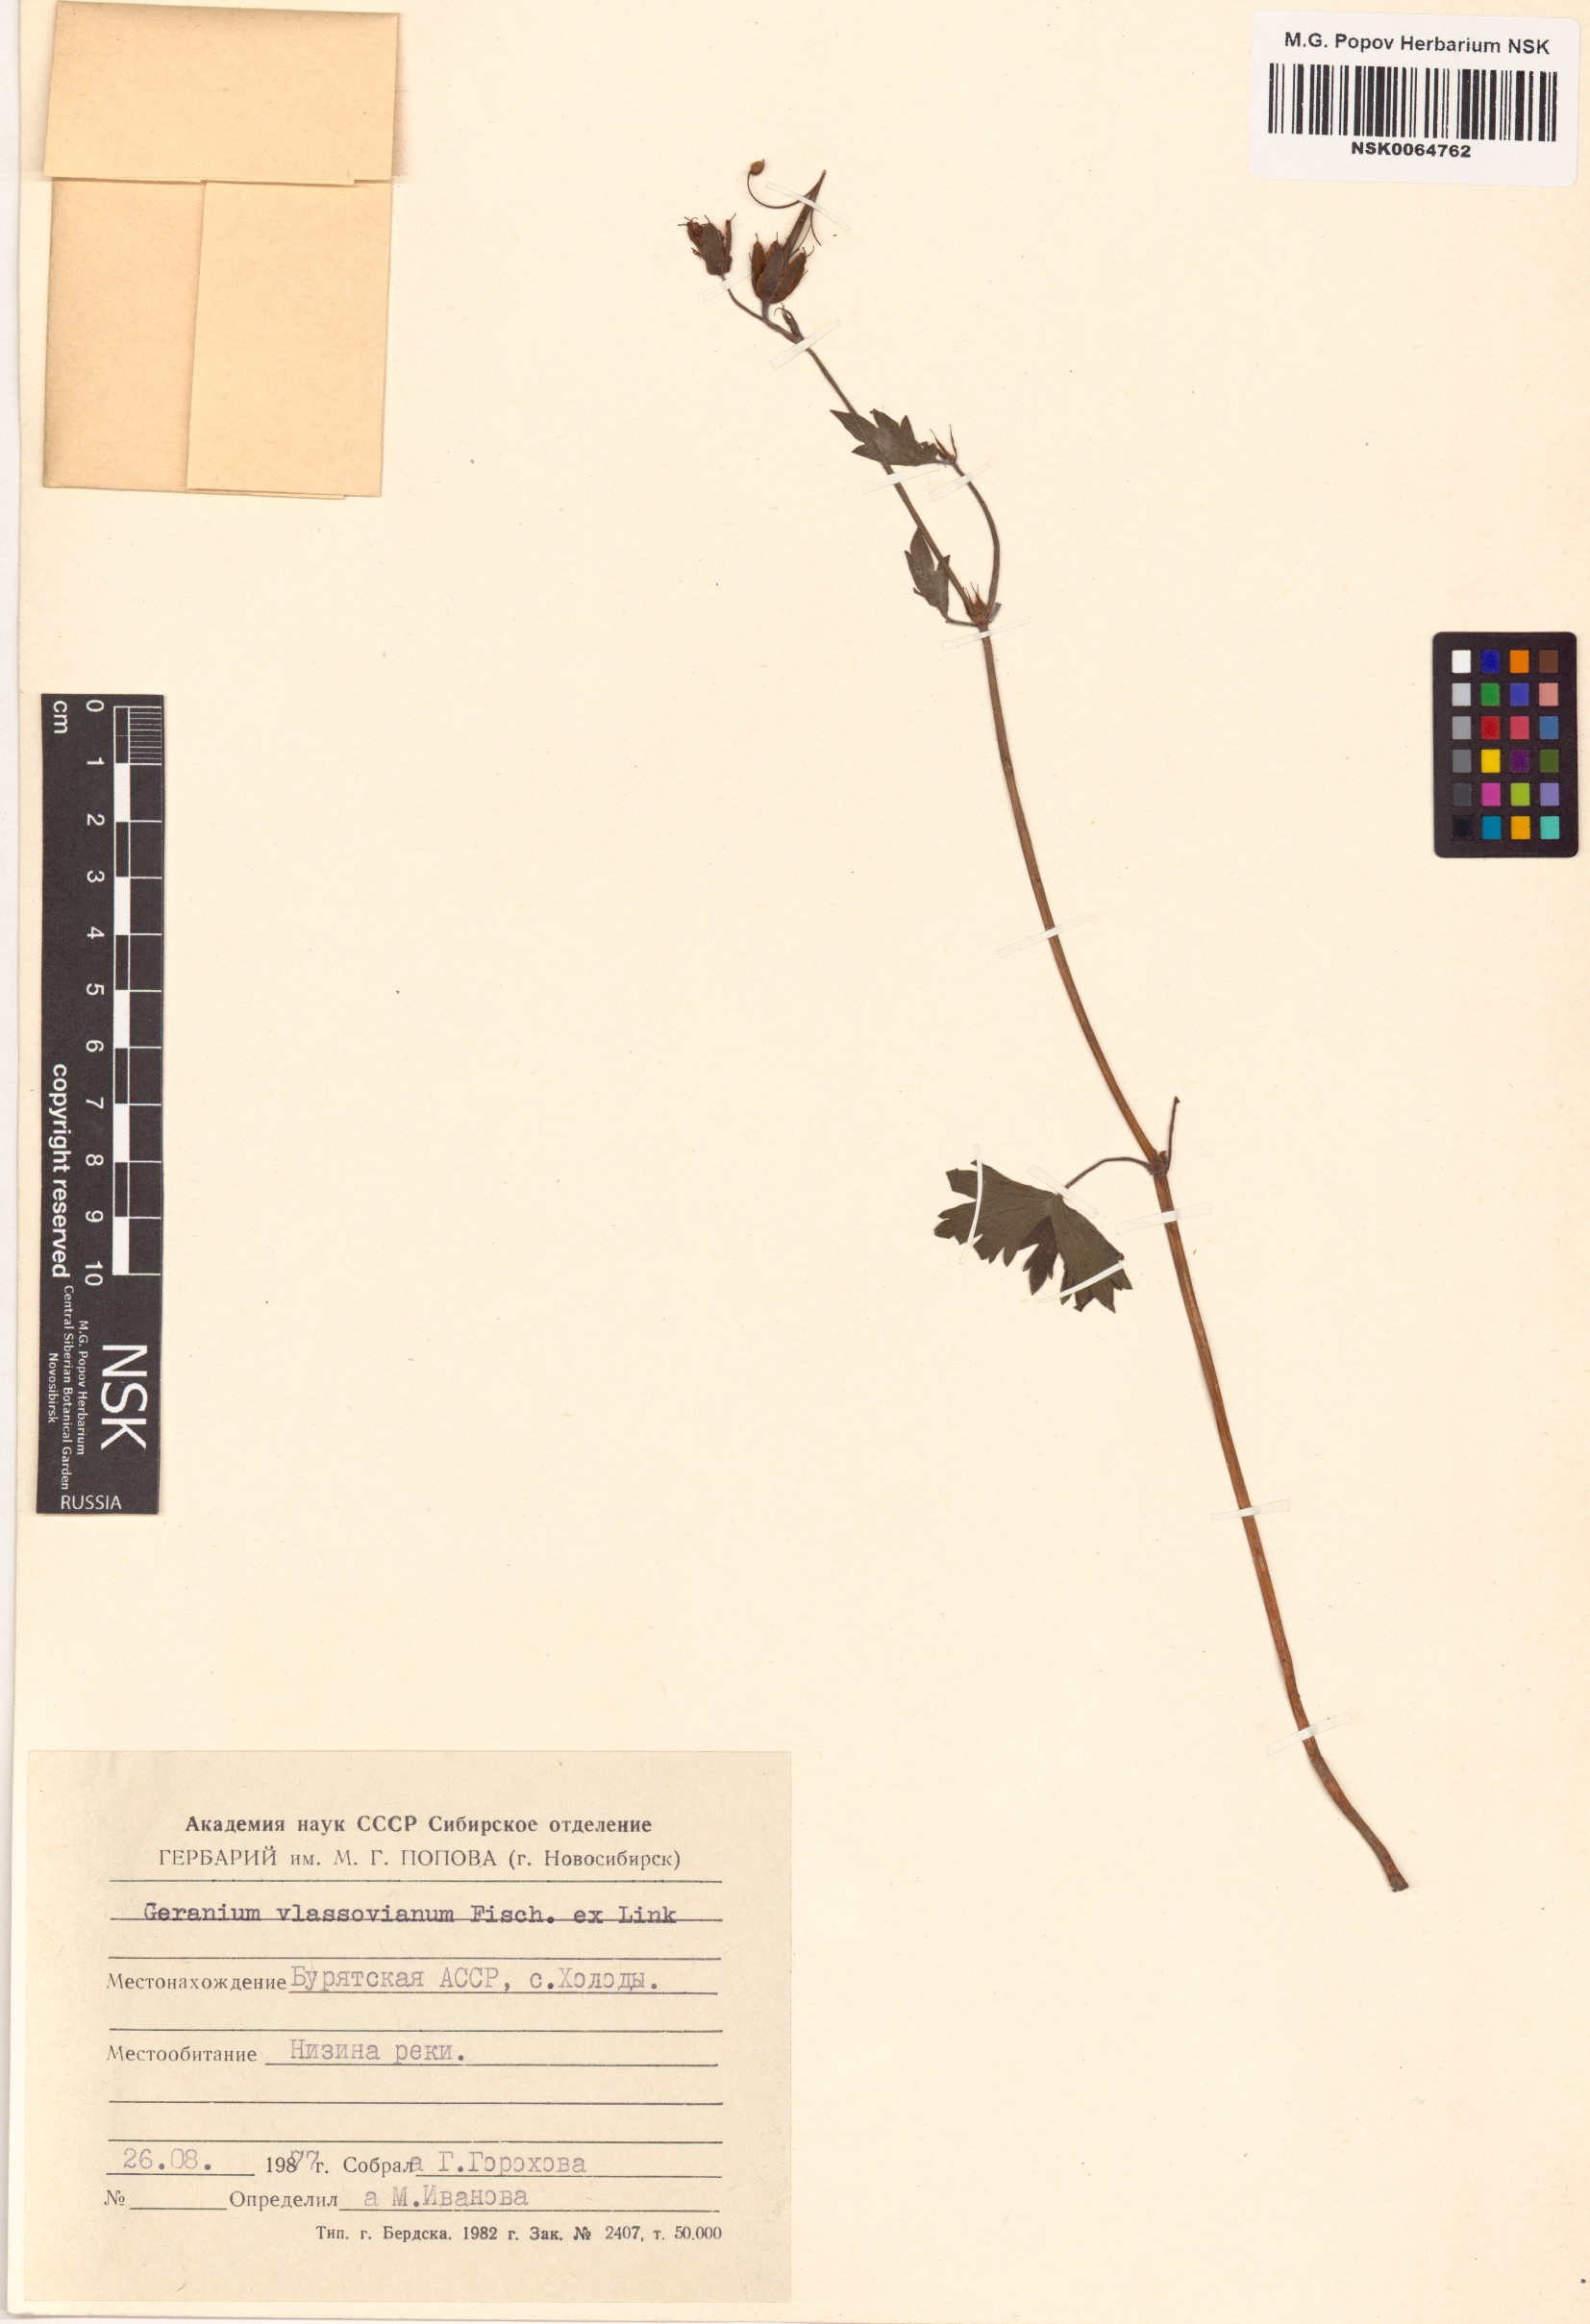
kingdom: Plantae
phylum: Tracheophyta
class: Magnoliopsida
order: Geraniales
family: Geraniaceae
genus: Geranium
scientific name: Geranium wlassovianum
